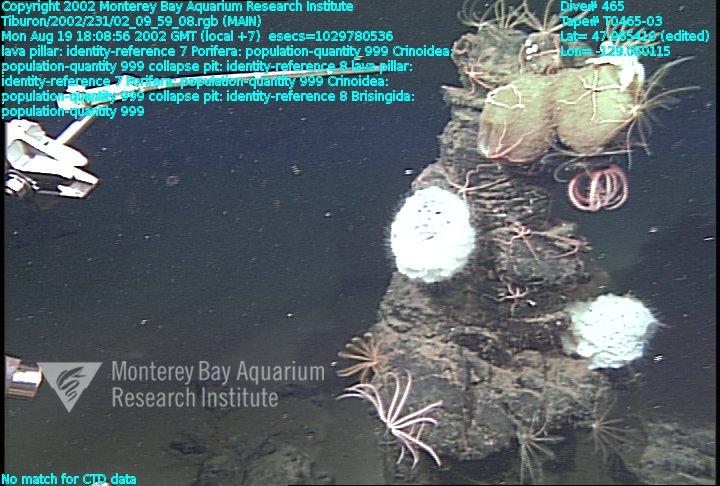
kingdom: Animalia
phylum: Porifera
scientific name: Porifera
